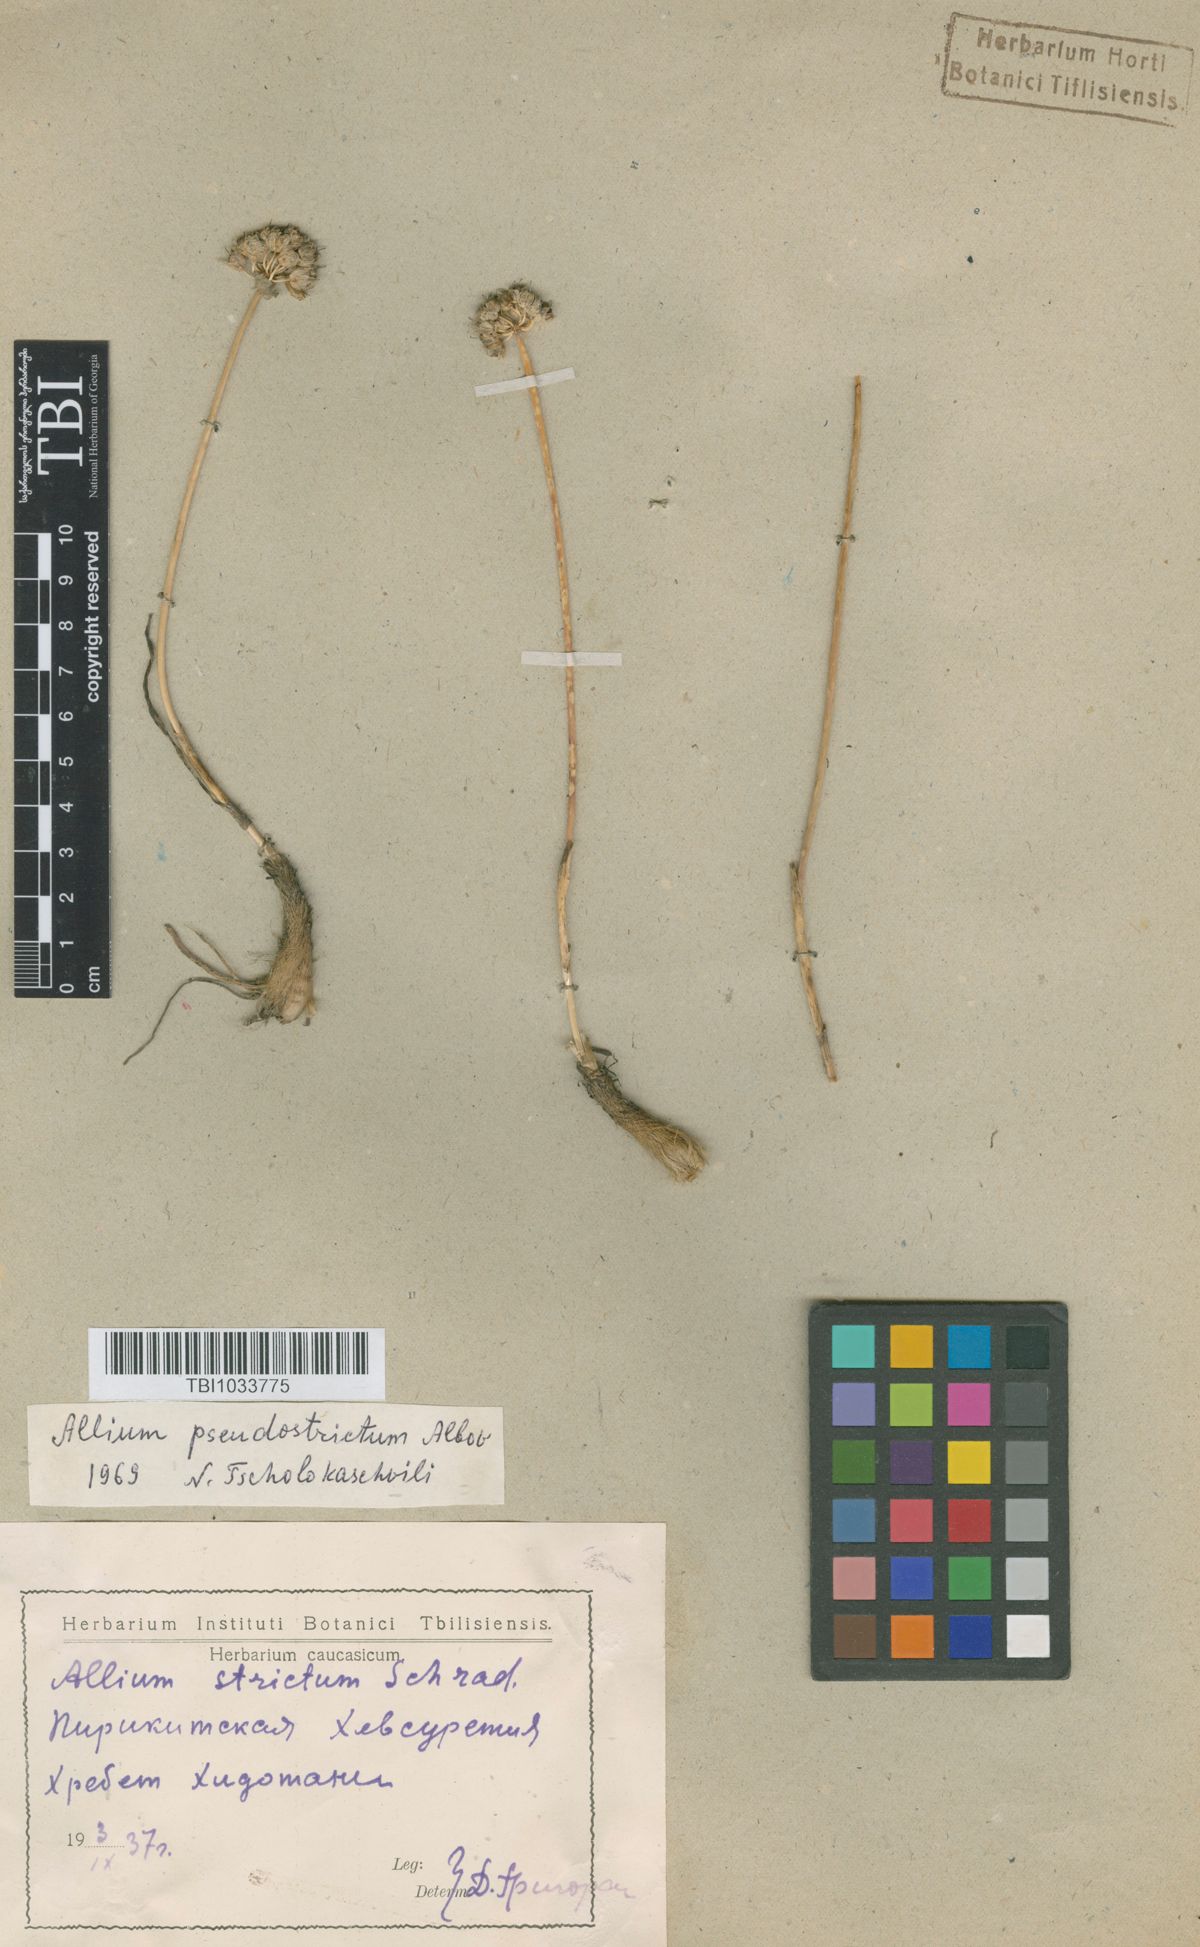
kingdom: Plantae
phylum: Tracheophyta
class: Liliopsida
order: Asparagales
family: Amaryllidaceae
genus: Allium
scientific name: Allium pseudostrictum
